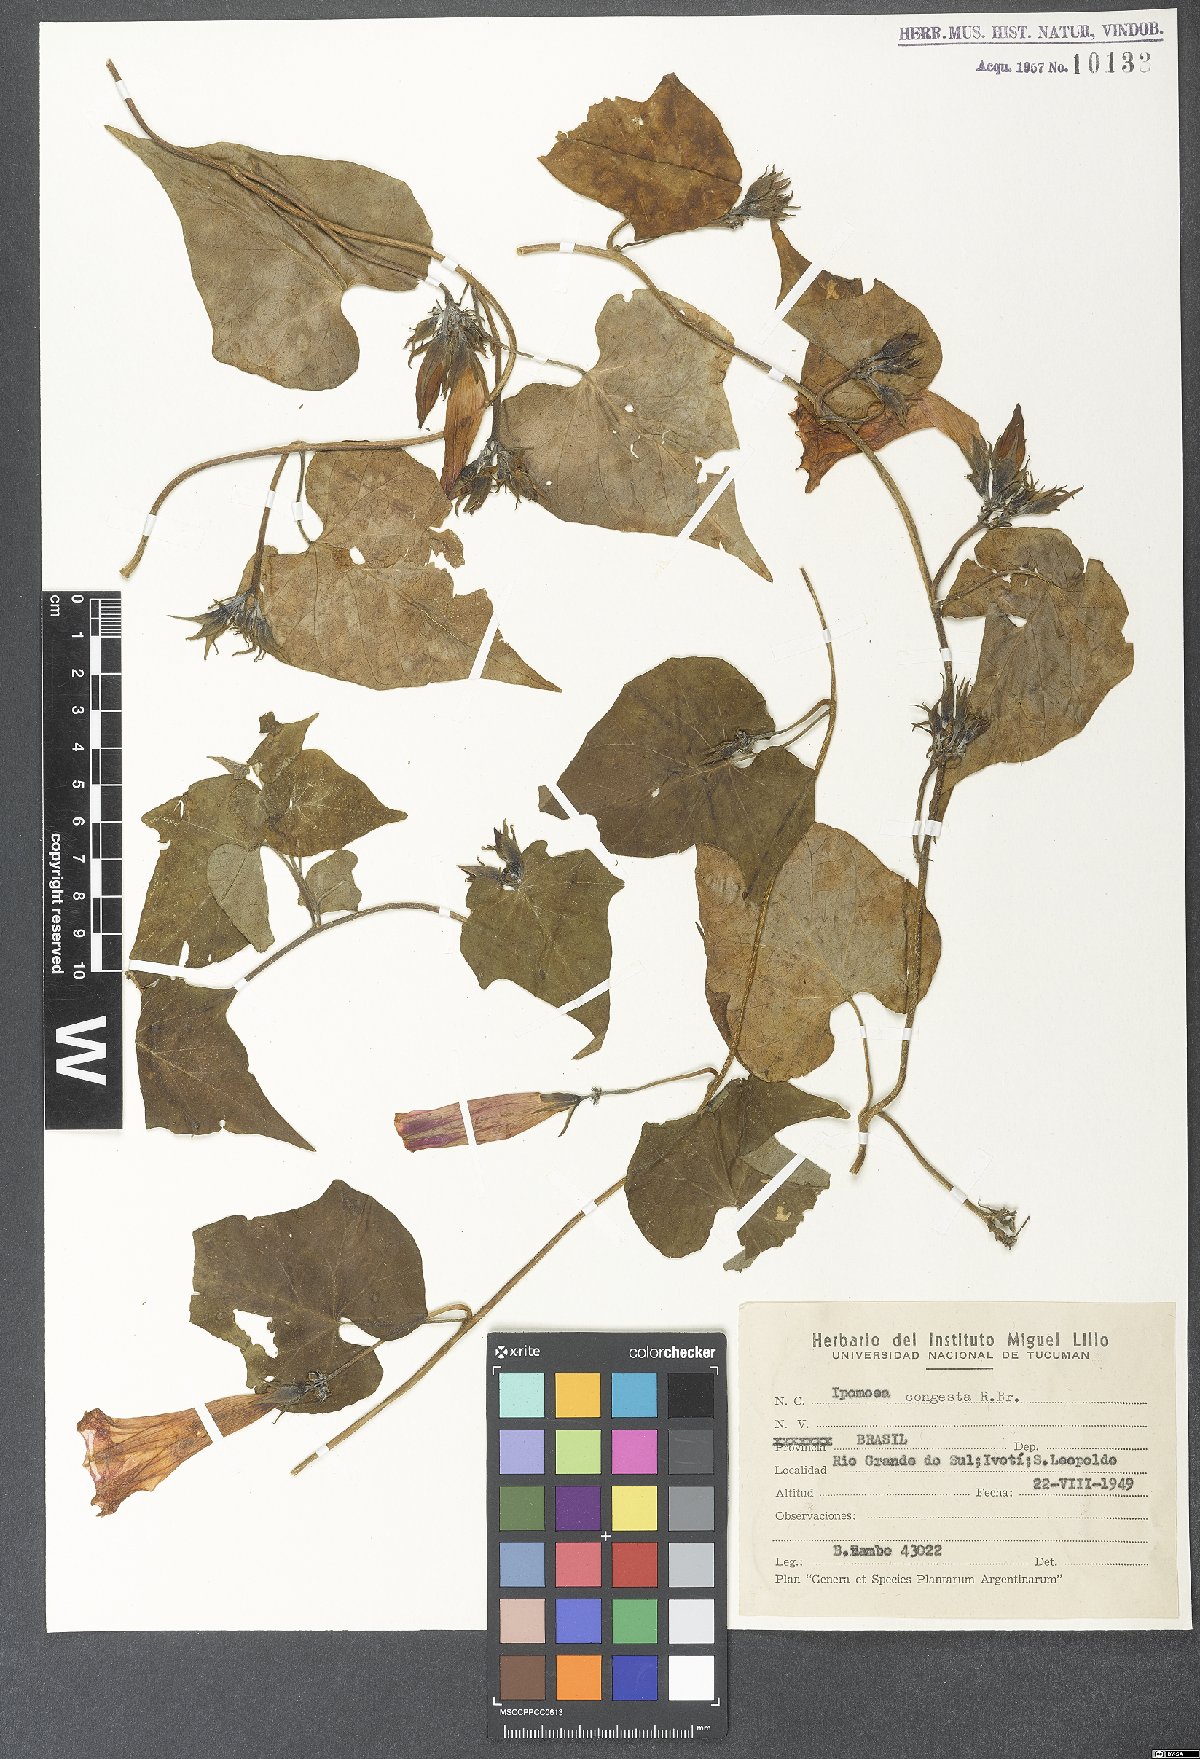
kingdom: Plantae
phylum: Tracheophyta
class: Magnoliopsida
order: Solanales
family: Convolvulaceae
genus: Ipomoea
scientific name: Ipomoea indica
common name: Blue dawnflower
